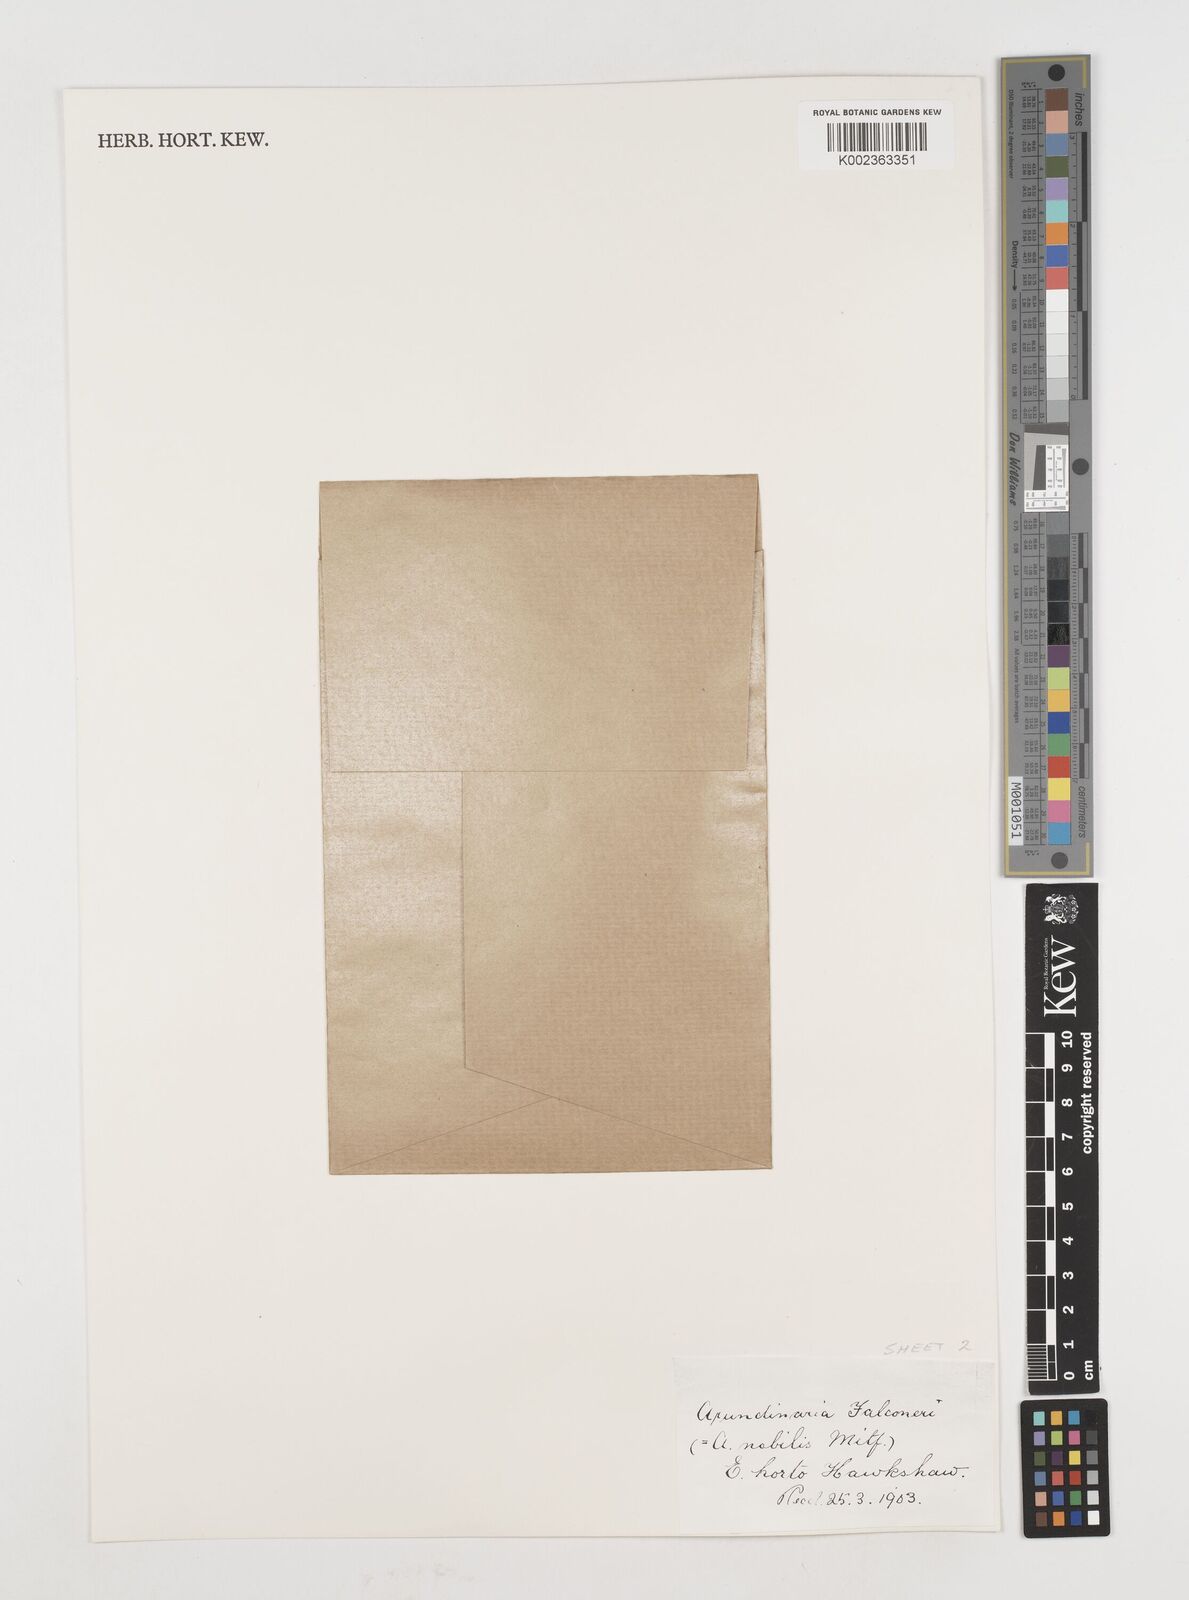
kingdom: Plantae
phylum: Tracheophyta
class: Liliopsida
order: Poales
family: Poaceae
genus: Himalayacalamus
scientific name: Himalayacalamus falconeri
